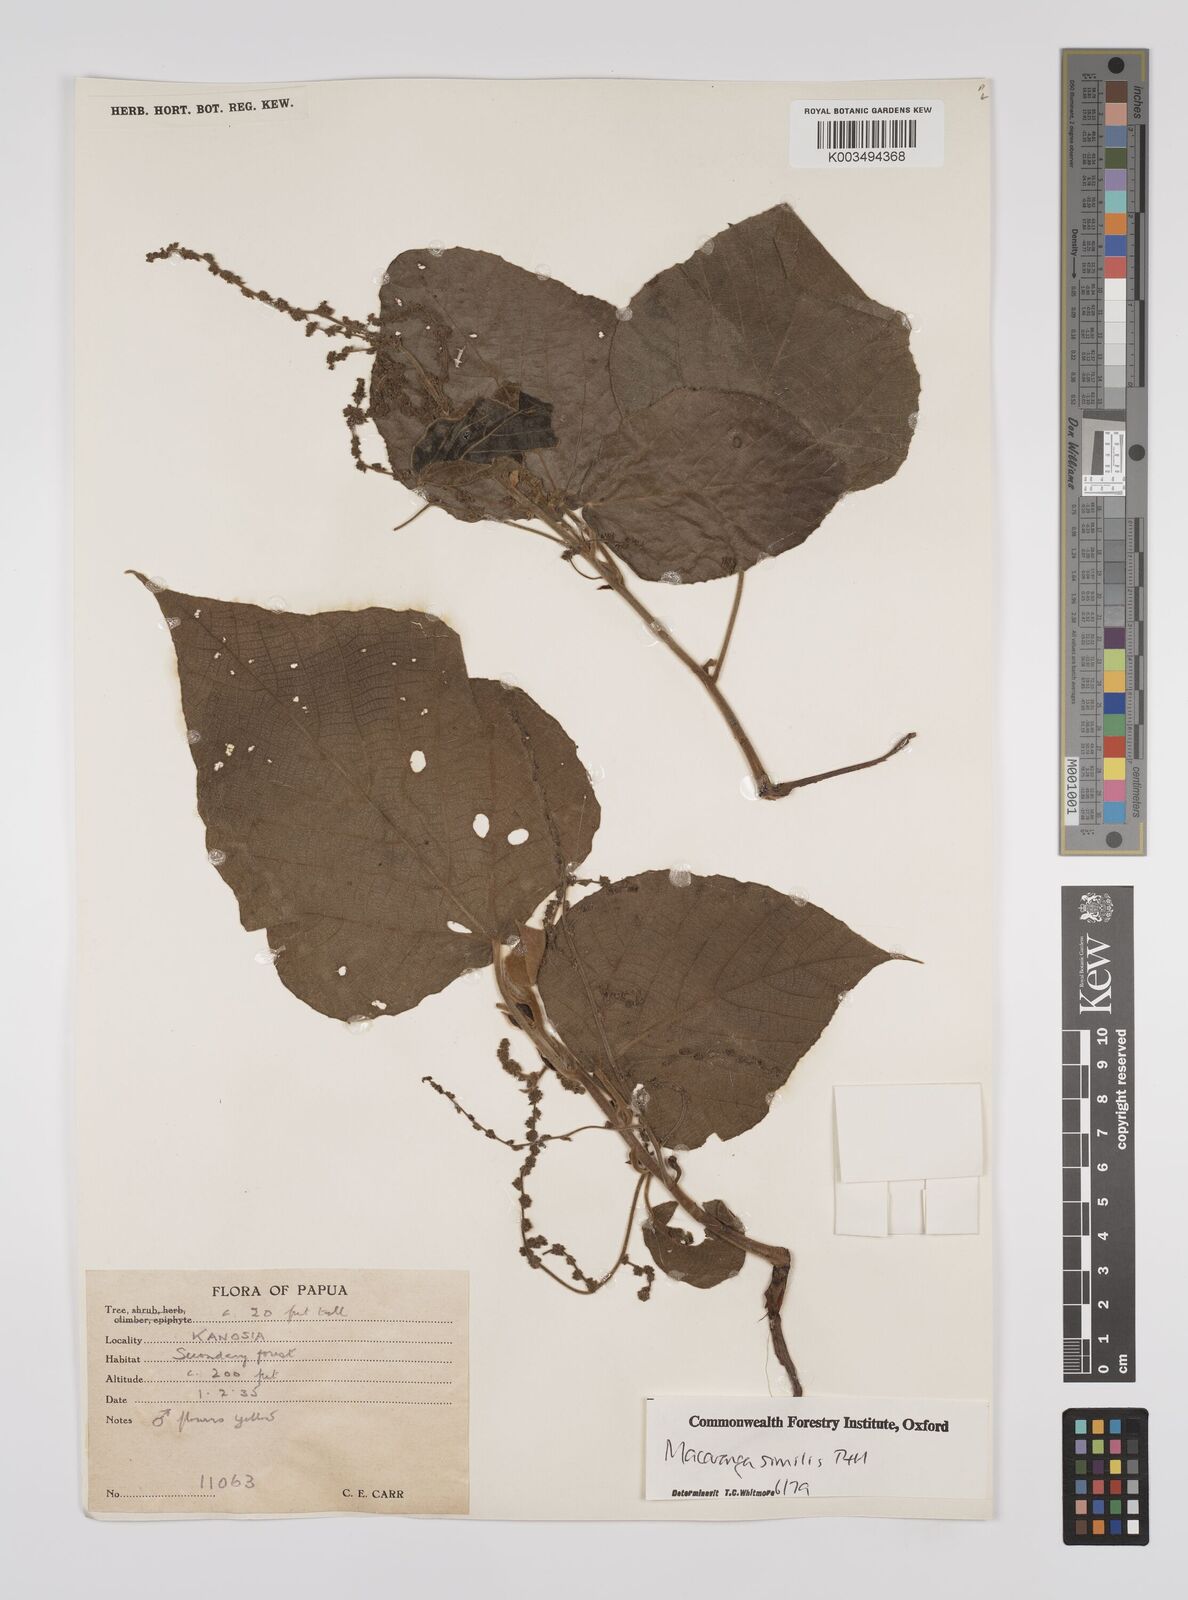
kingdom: Plantae
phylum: Tracheophyta
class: Magnoliopsida
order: Malpighiales
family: Euphorbiaceae
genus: Macaranga
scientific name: Macaranga similis
